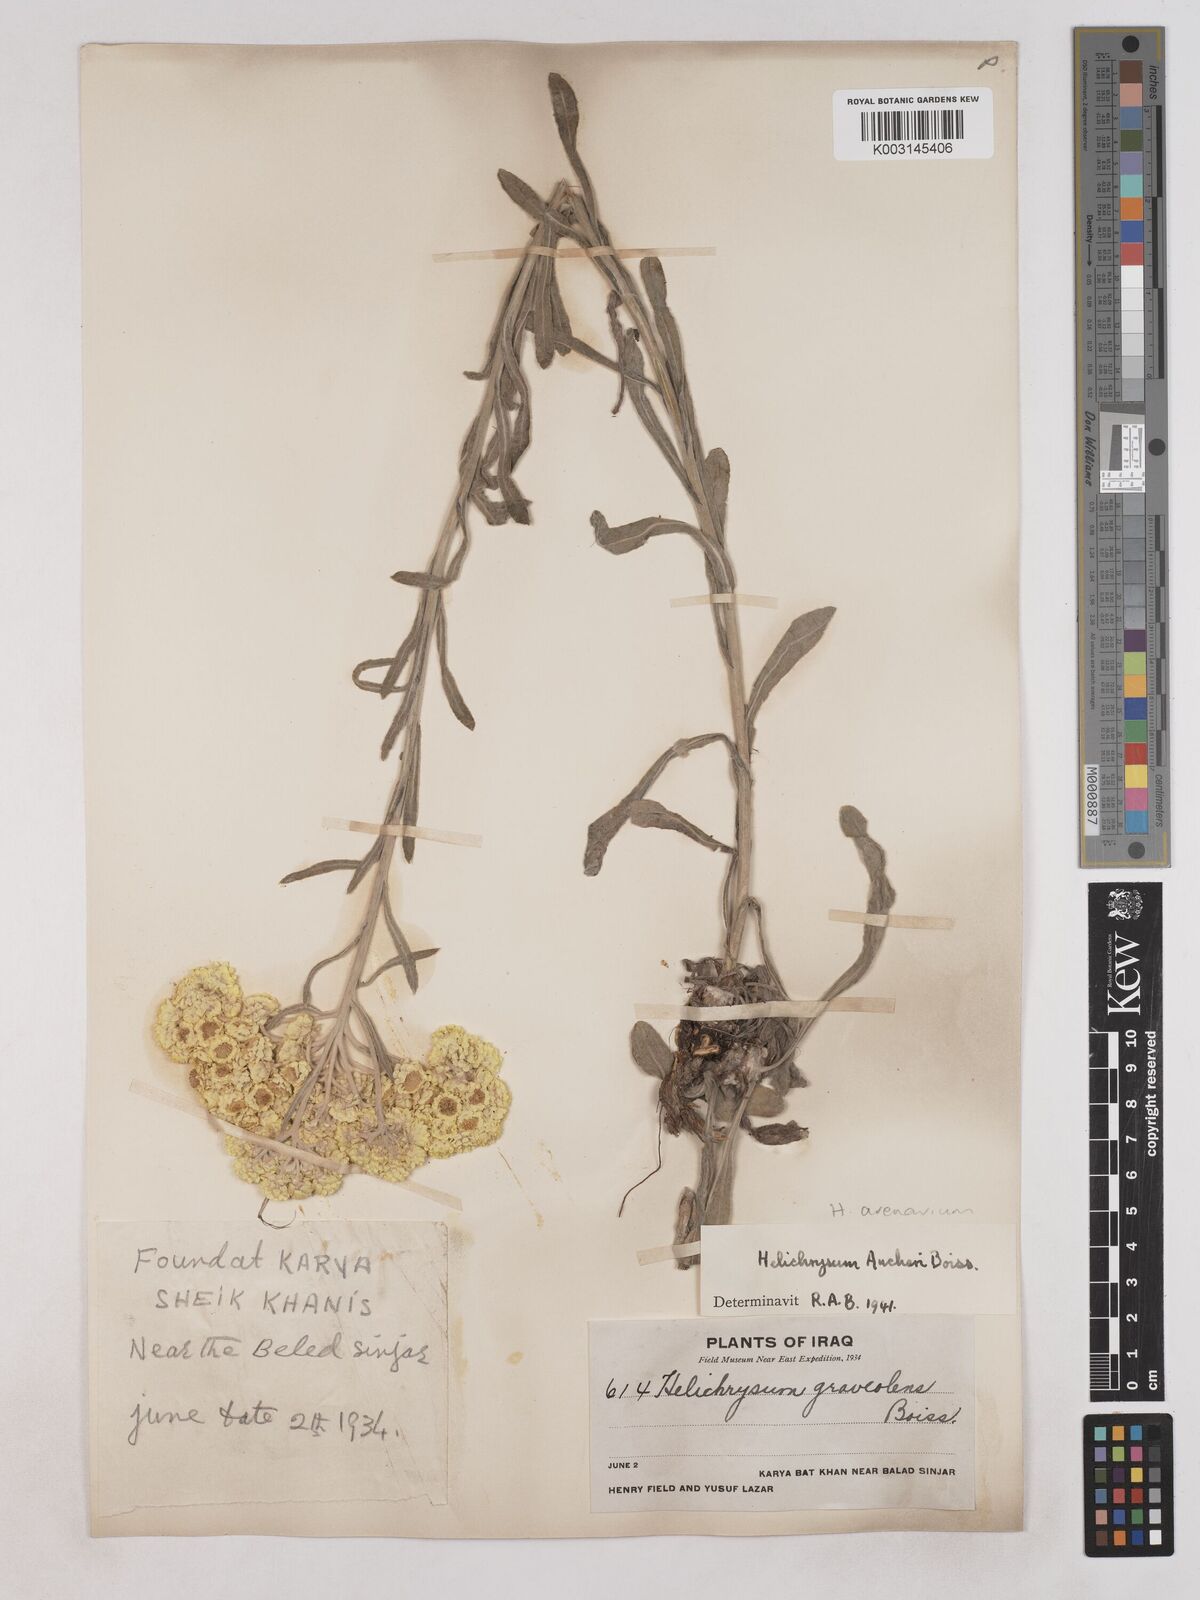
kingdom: Plantae
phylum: Tracheophyta
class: Magnoliopsida
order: Asterales
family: Asteraceae
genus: Helichrysum
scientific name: Helichrysum arenarium
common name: Strawflower
